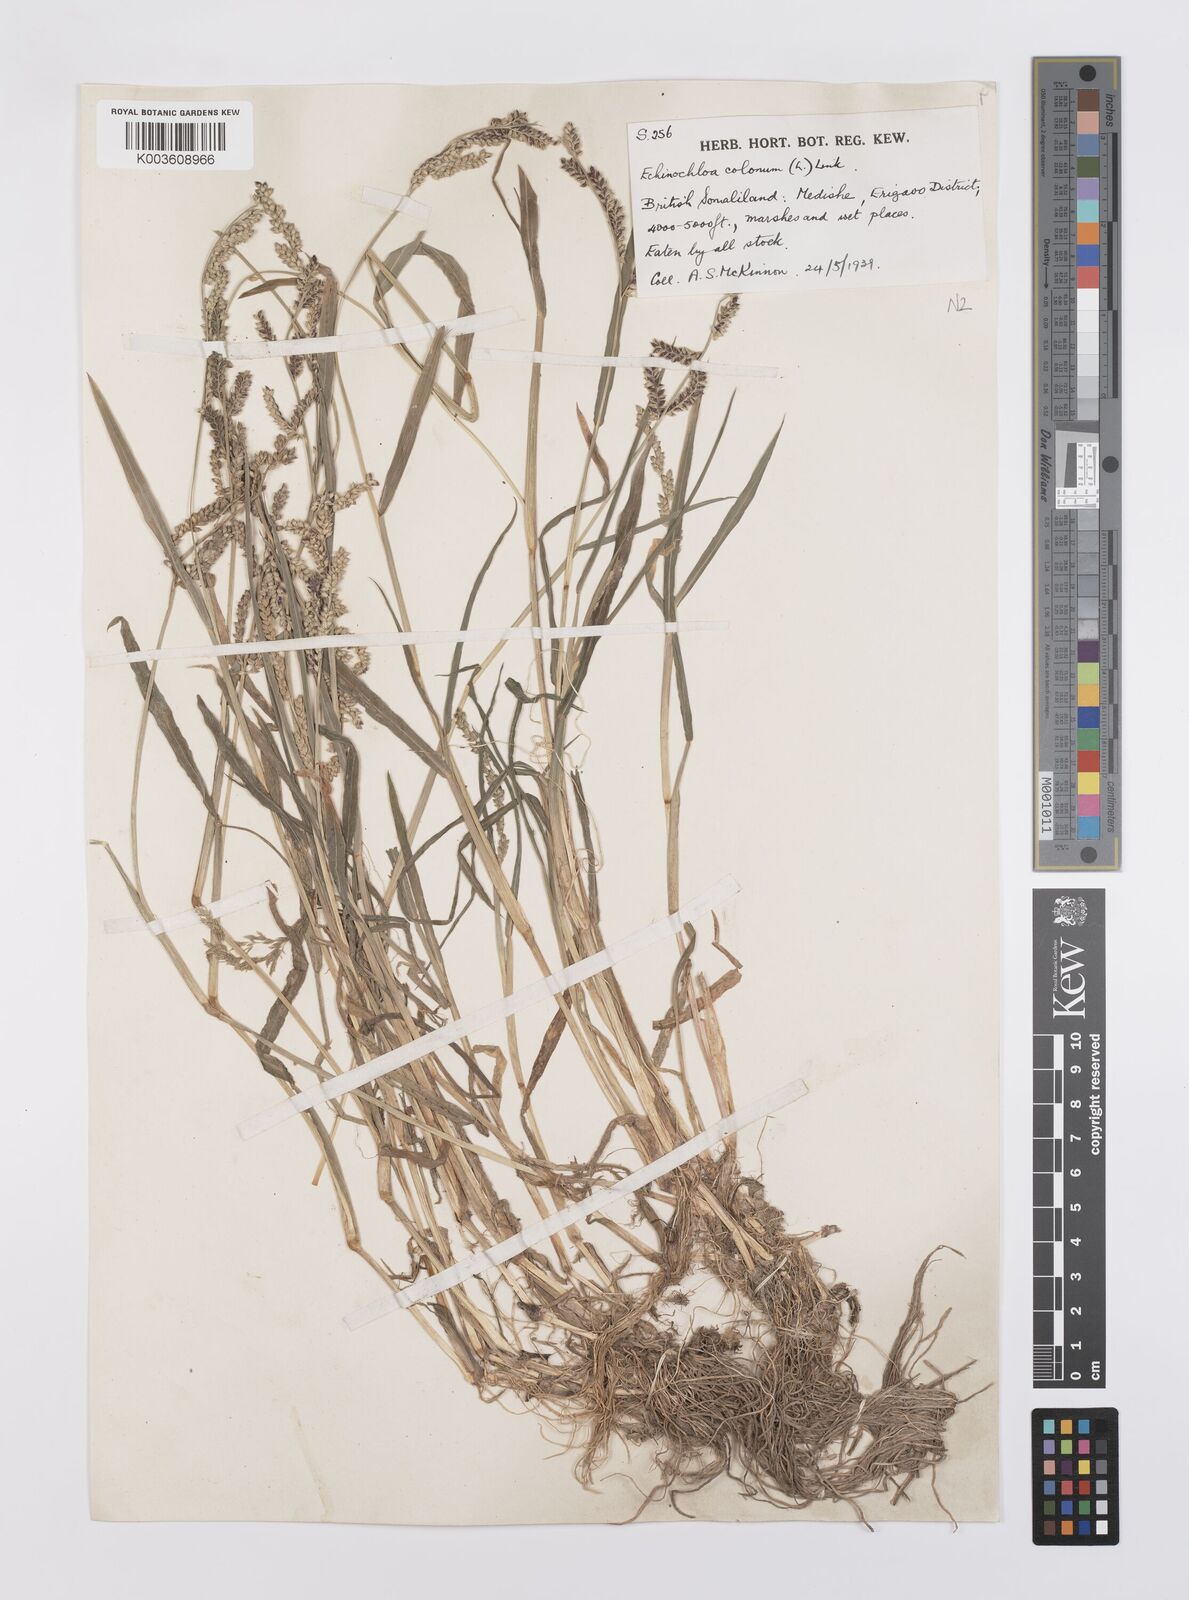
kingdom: Plantae
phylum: Tracheophyta
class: Liliopsida
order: Poales
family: Poaceae
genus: Echinochloa
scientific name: Echinochloa colonum
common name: Jungle rice
